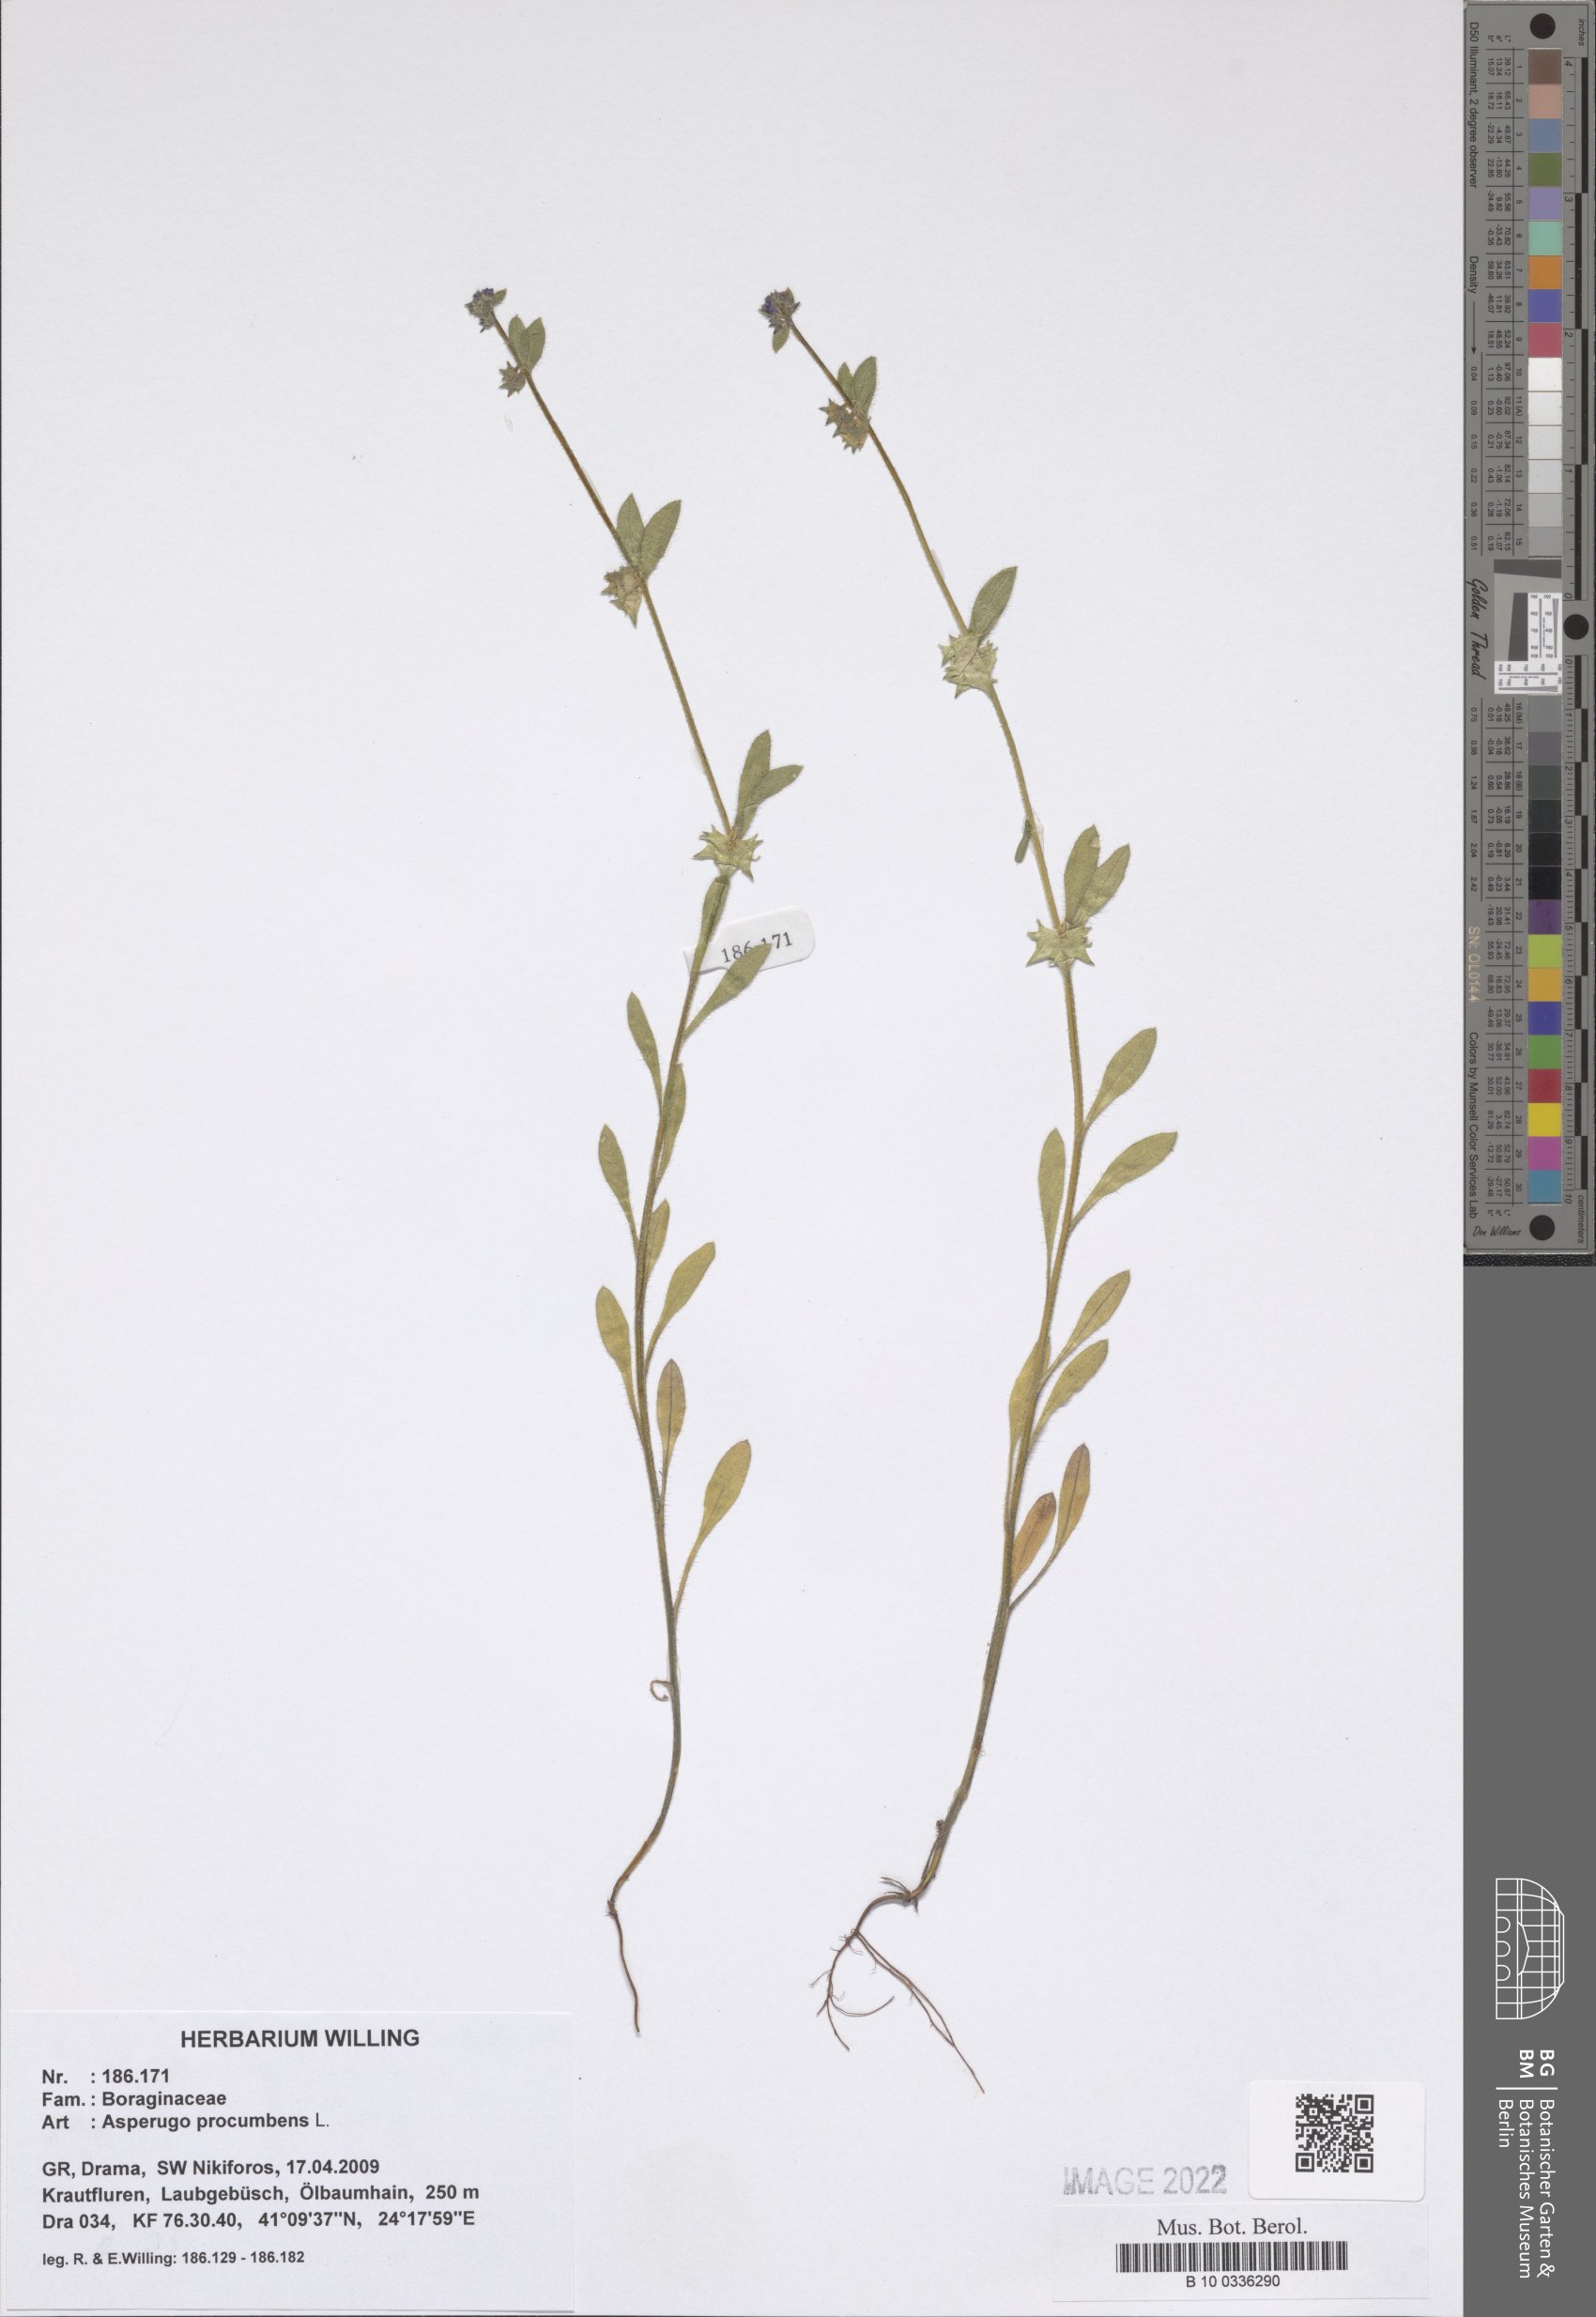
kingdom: Plantae
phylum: Tracheophyta
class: Magnoliopsida
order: Boraginales
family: Boraginaceae
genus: Asperugo
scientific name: Asperugo procumbens
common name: Madwort
